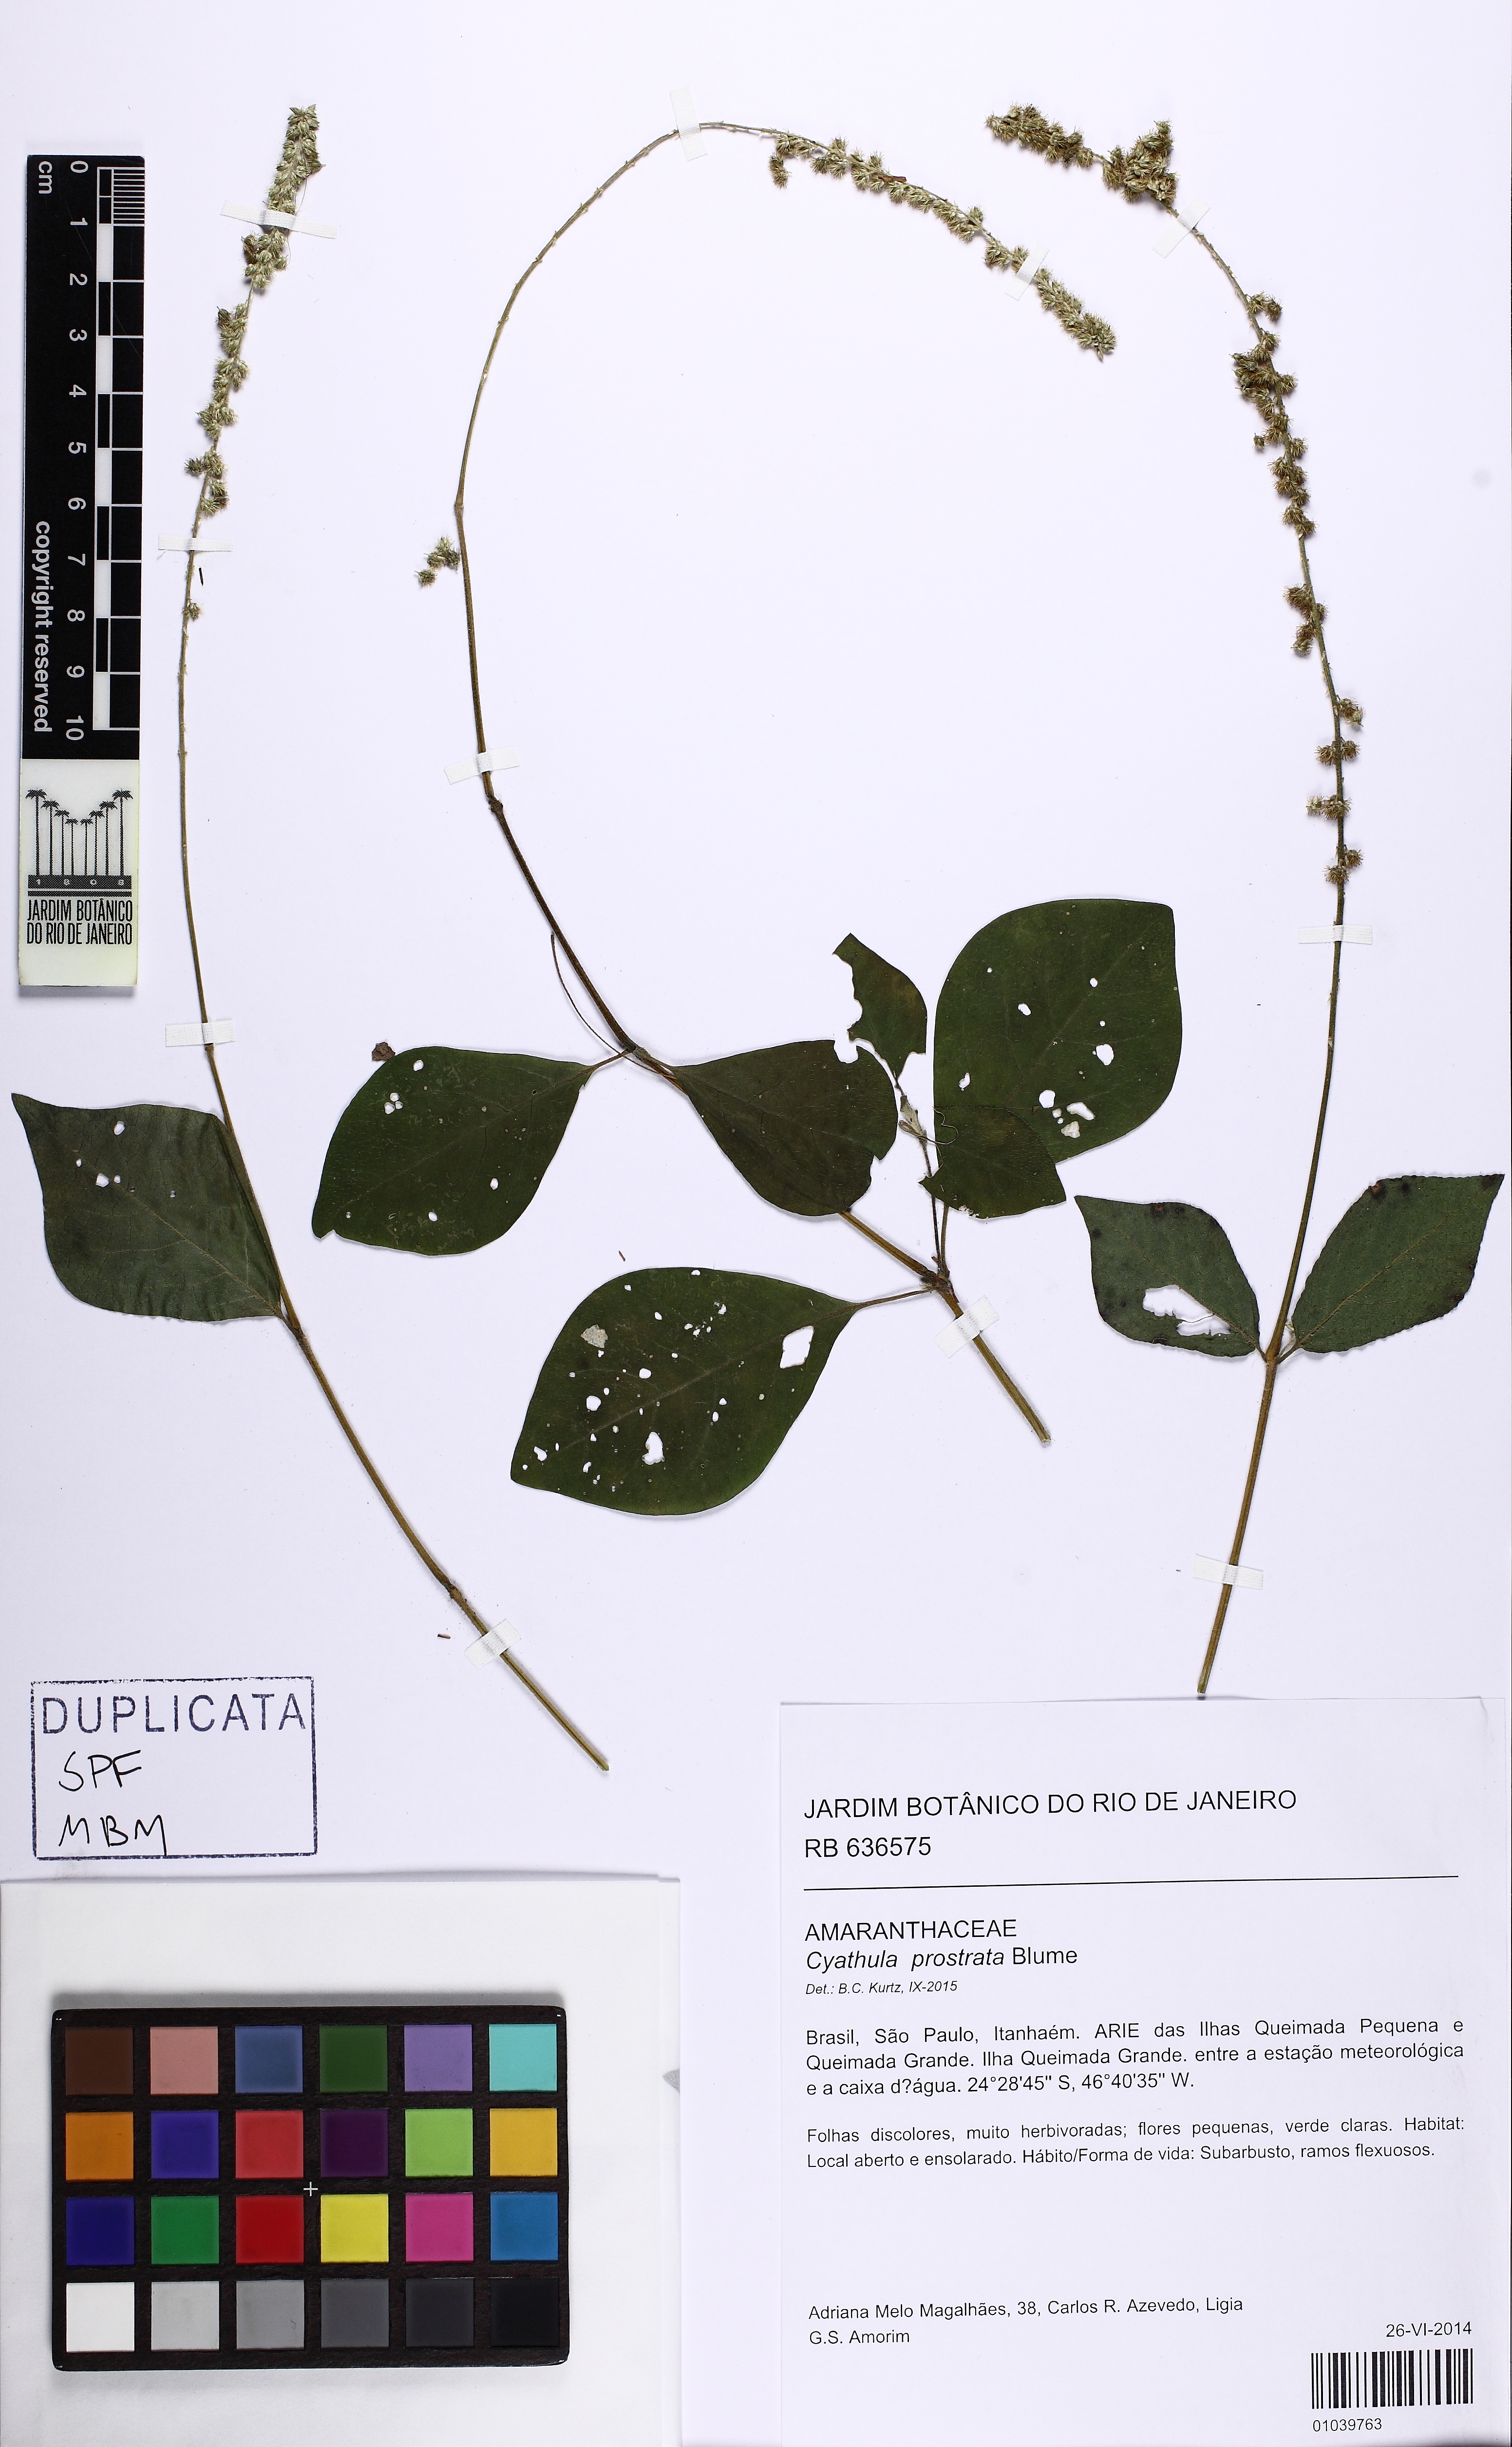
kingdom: Plantae
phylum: Tracheophyta
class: Magnoliopsida
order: Caryophyllales
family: Amaranthaceae
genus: Cyathula
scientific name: Cyathula prostrata
